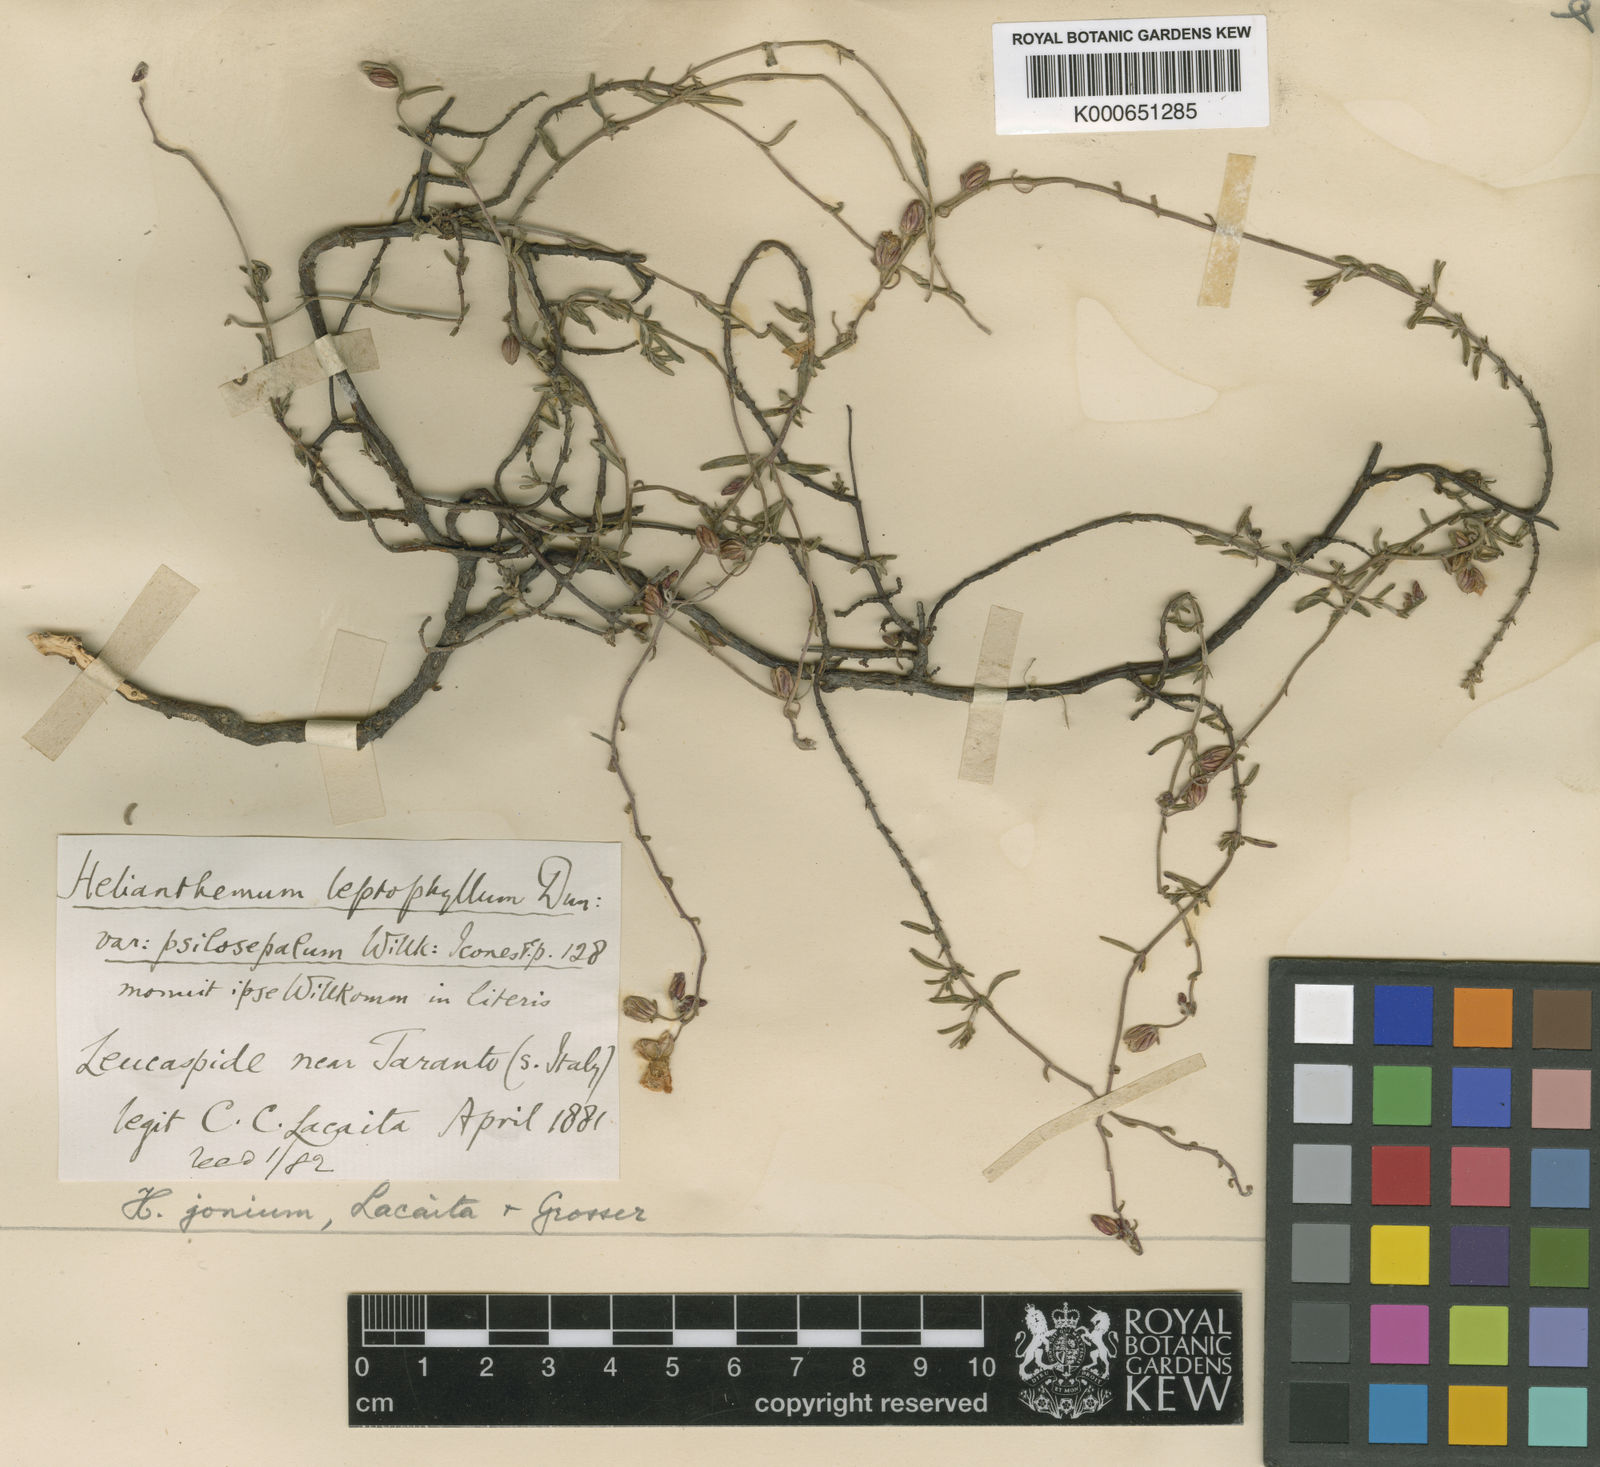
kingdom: Plantae
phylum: Tracheophyta
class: Magnoliopsida
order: Malvales
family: Cistaceae
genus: Helianthemum
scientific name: Helianthemum
